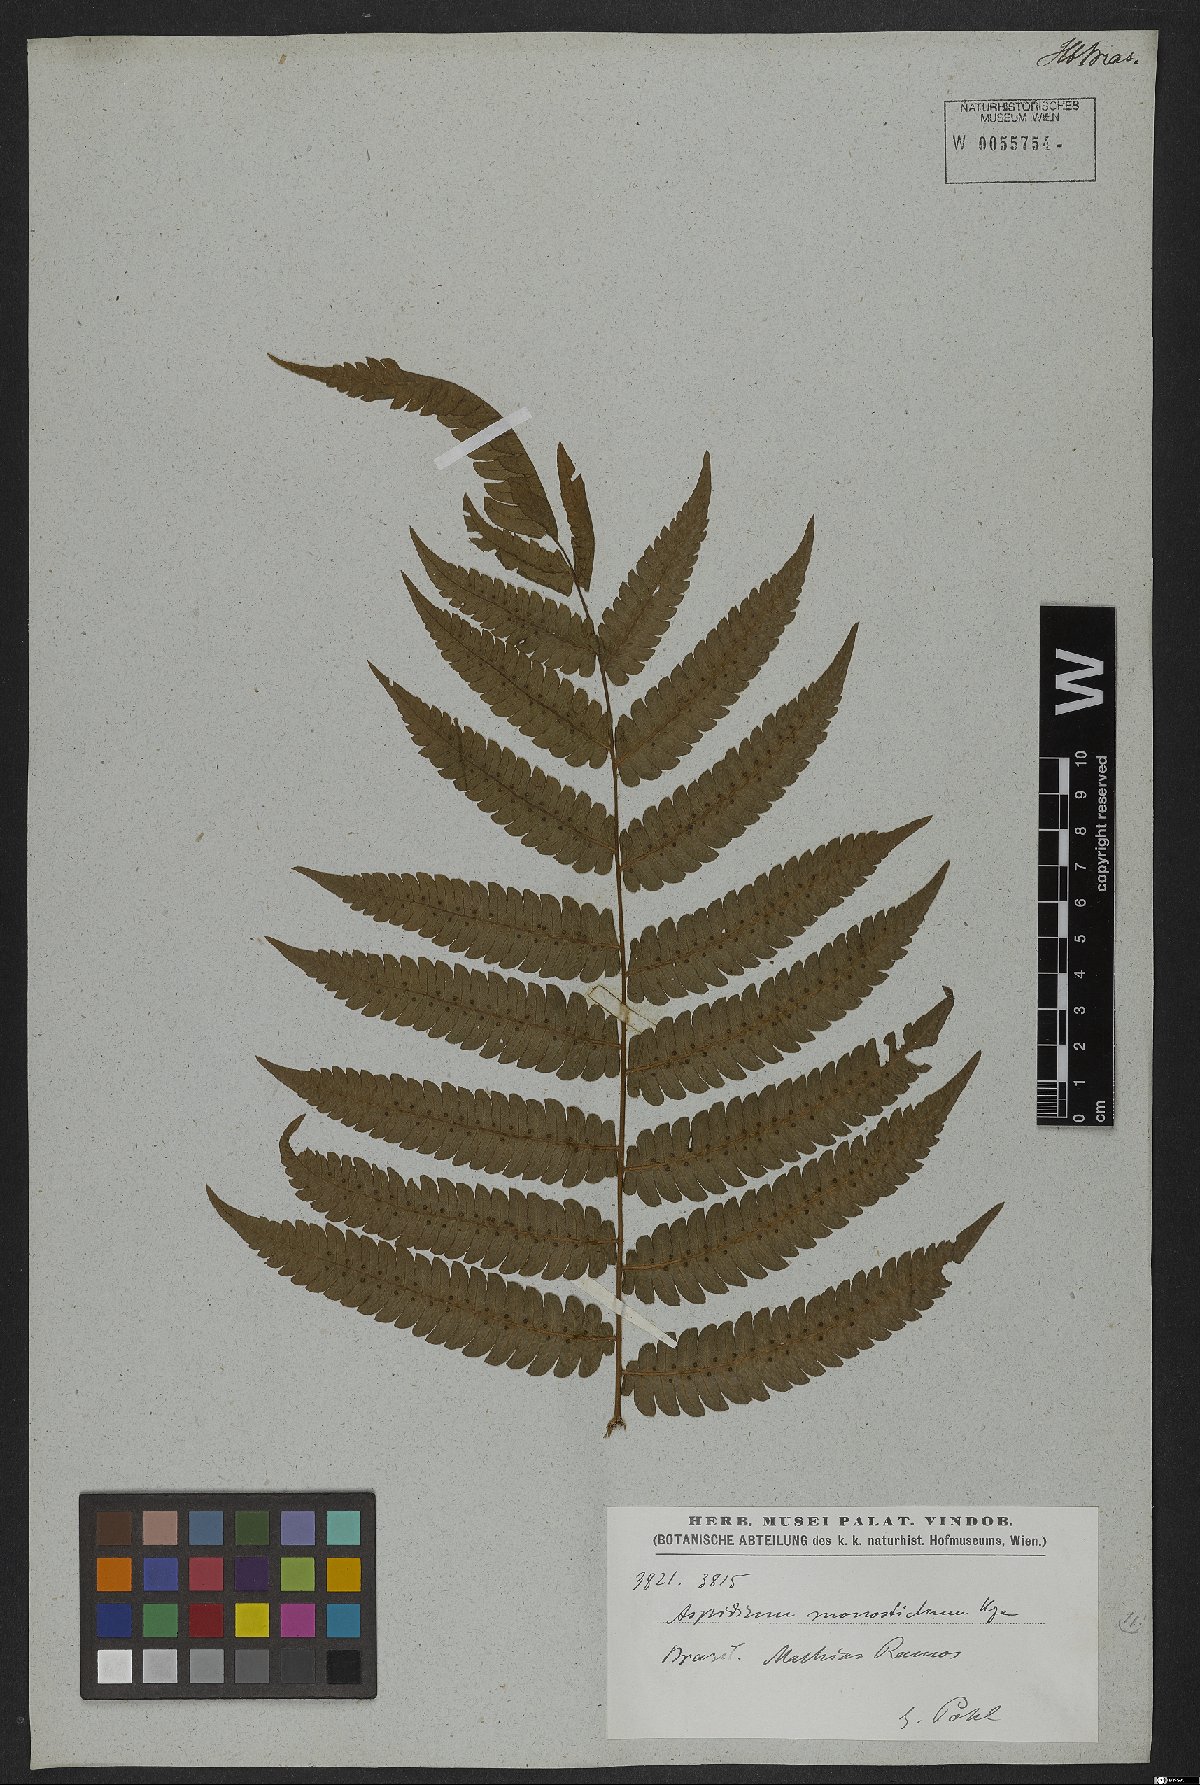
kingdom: Plantae
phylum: Tracheophyta
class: Polypodiopsida
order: Polypodiales
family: Thelypteridaceae
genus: Goniopteris
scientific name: Goniopteris tristis
